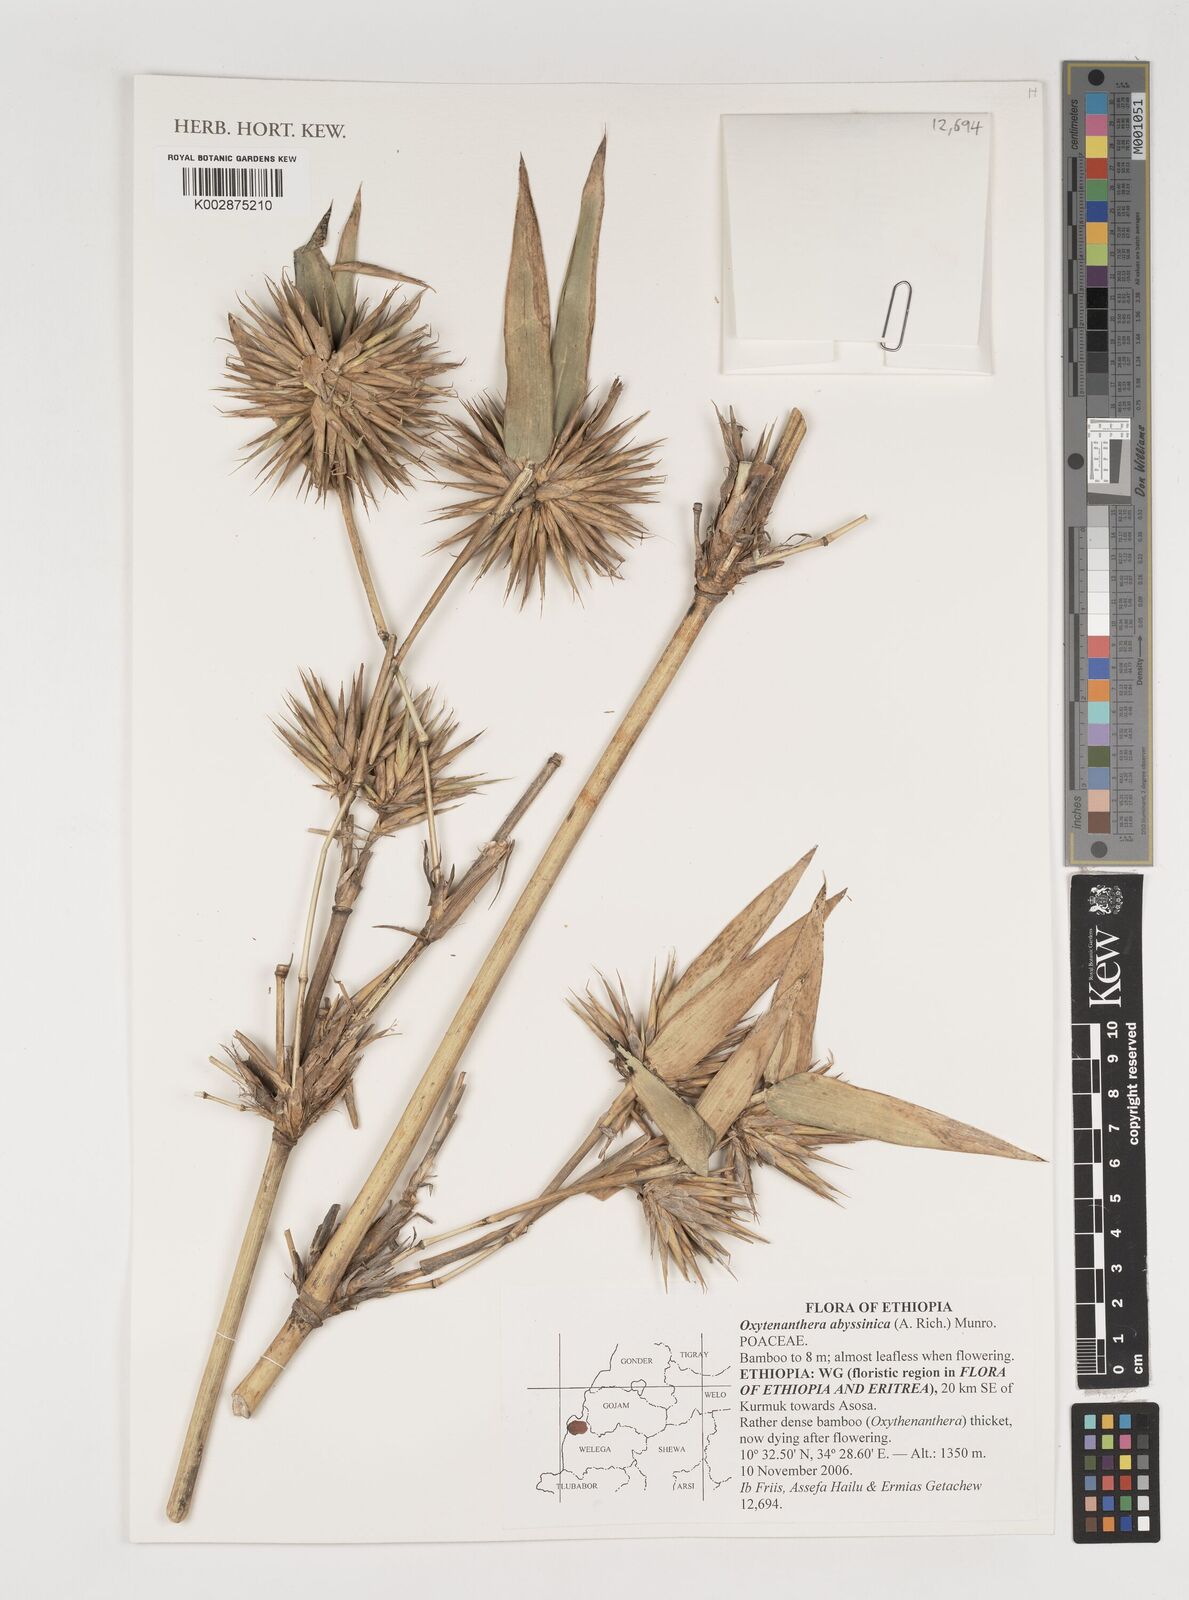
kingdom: Plantae
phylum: Tracheophyta
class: Liliopsida
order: Poales
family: Poaceae
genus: Oxytenanthera
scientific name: Oxytenanthera abyssinica
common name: Wine bamboo
